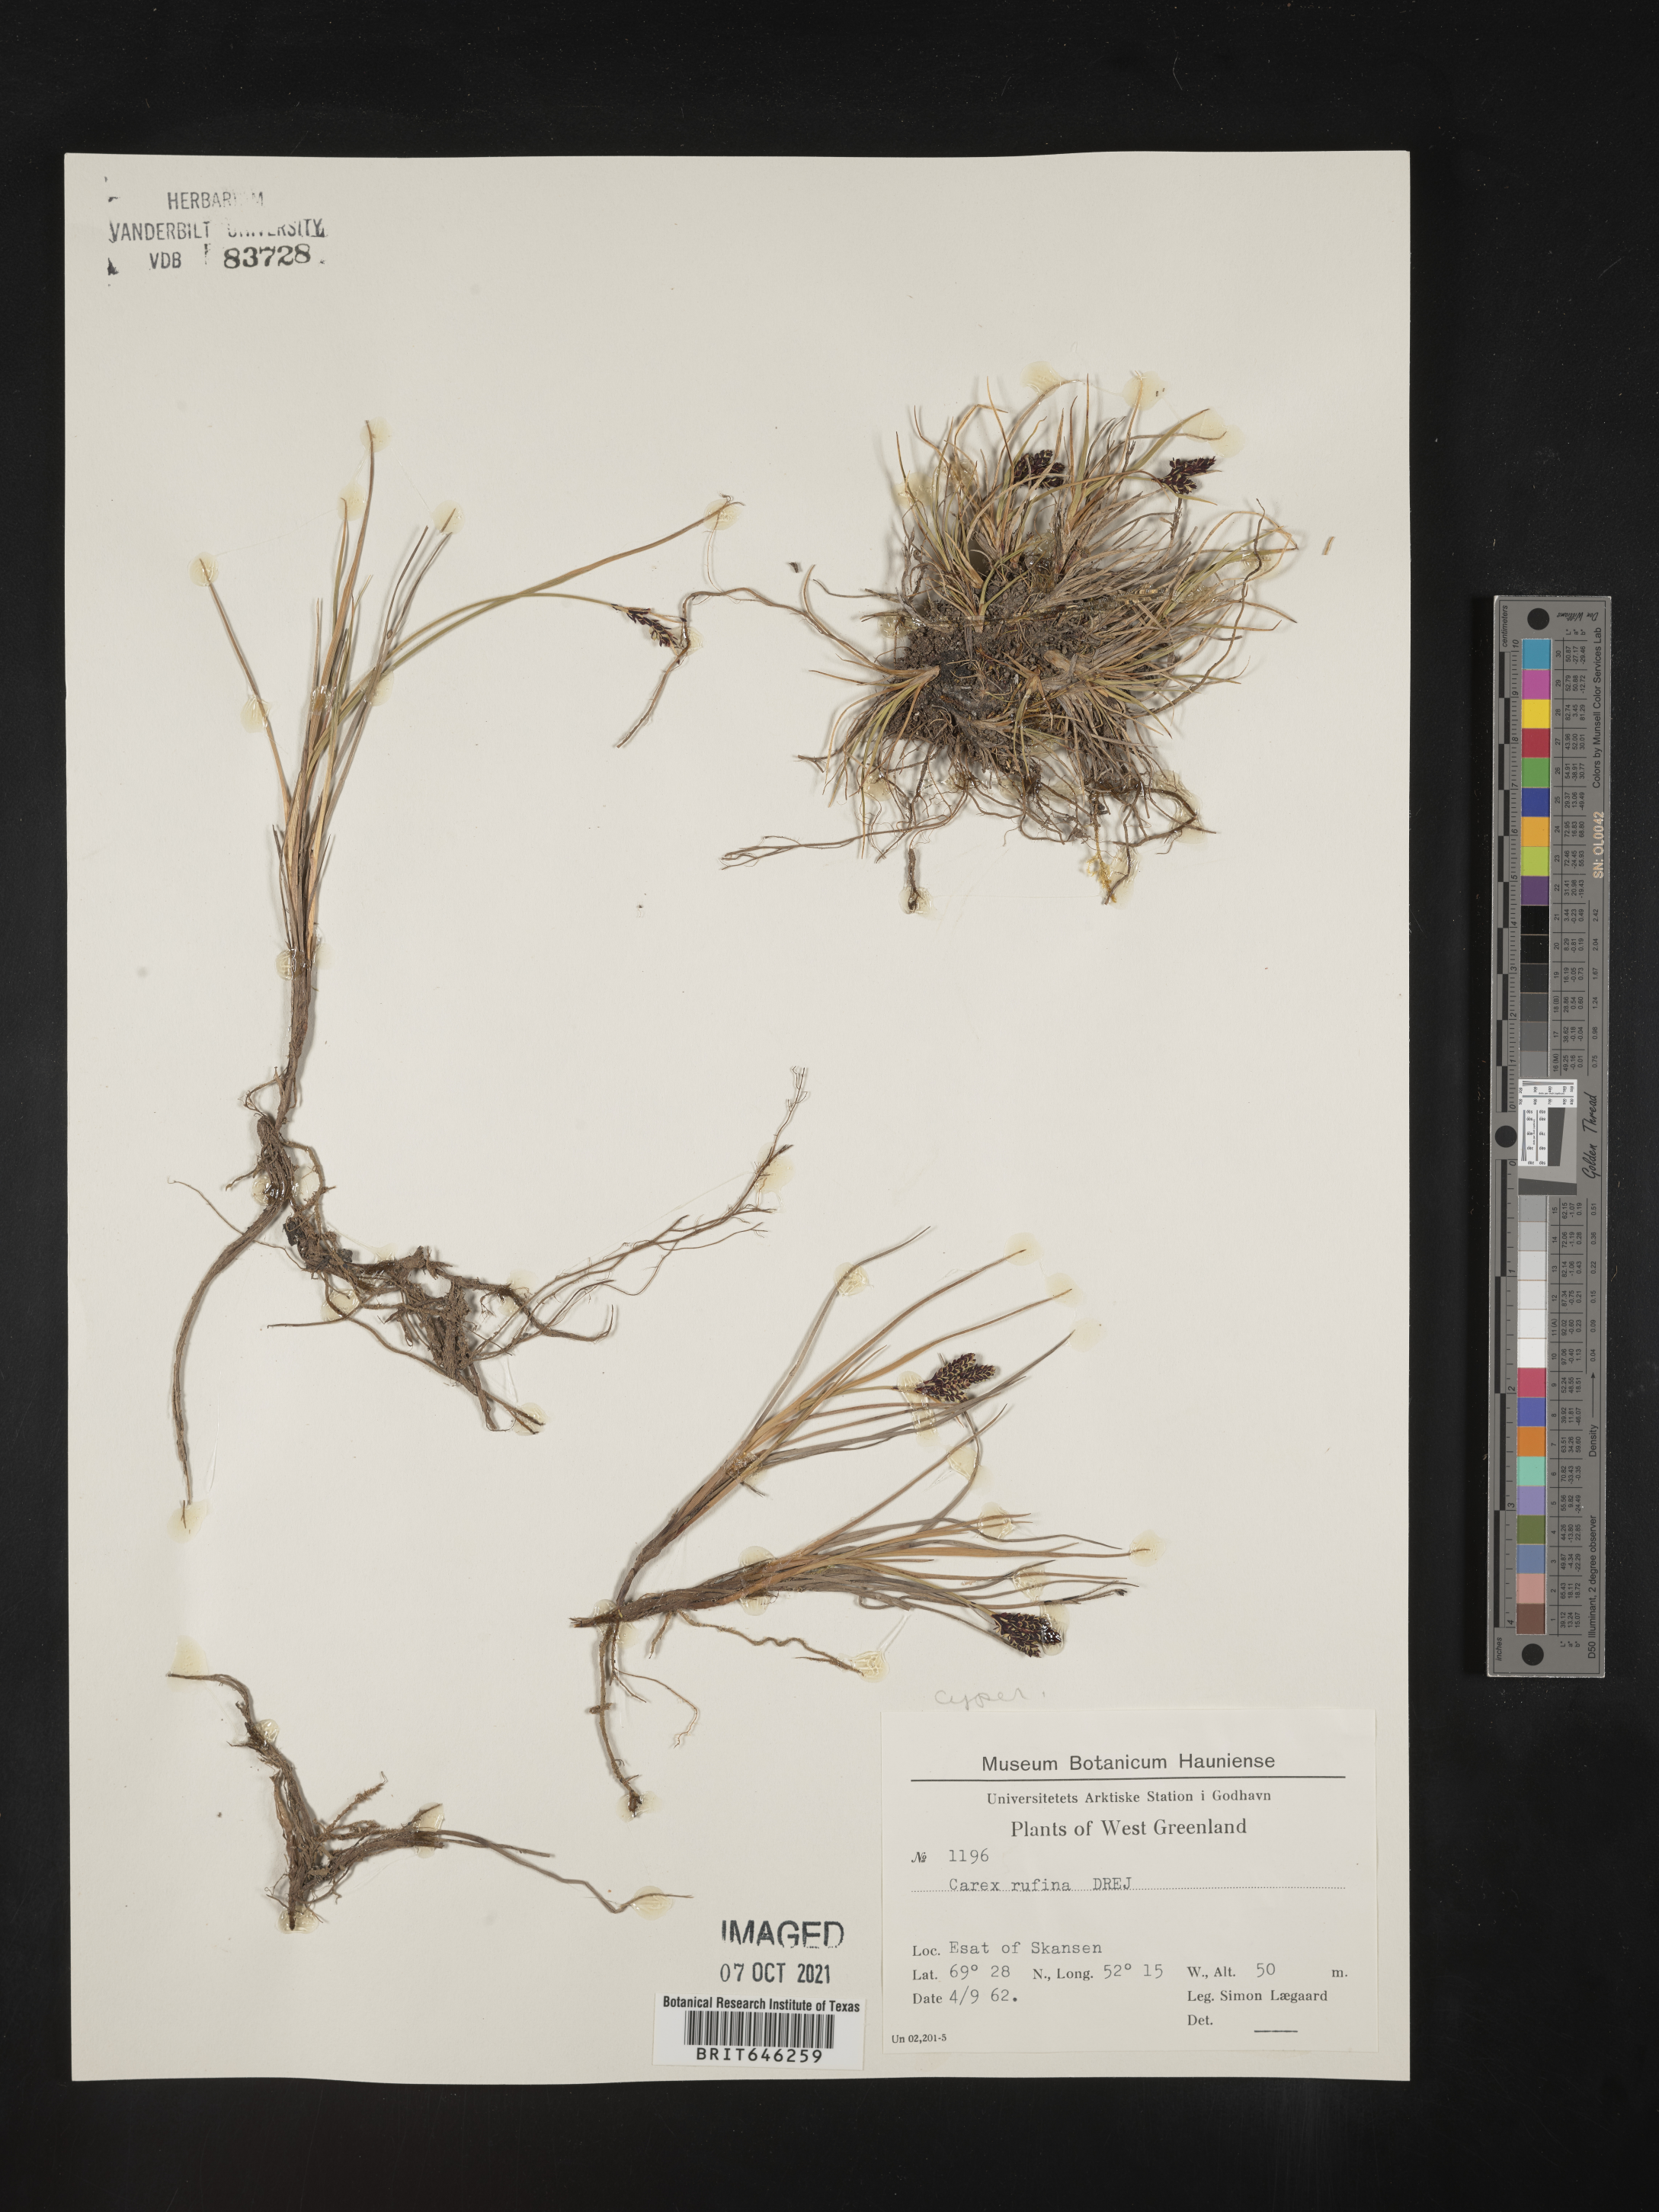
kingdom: Plantae
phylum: Tracheophyta
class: Liliopsida
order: Poales
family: Cyperaceae
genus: Carex
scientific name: Carex rufina
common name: Reddish sedge
